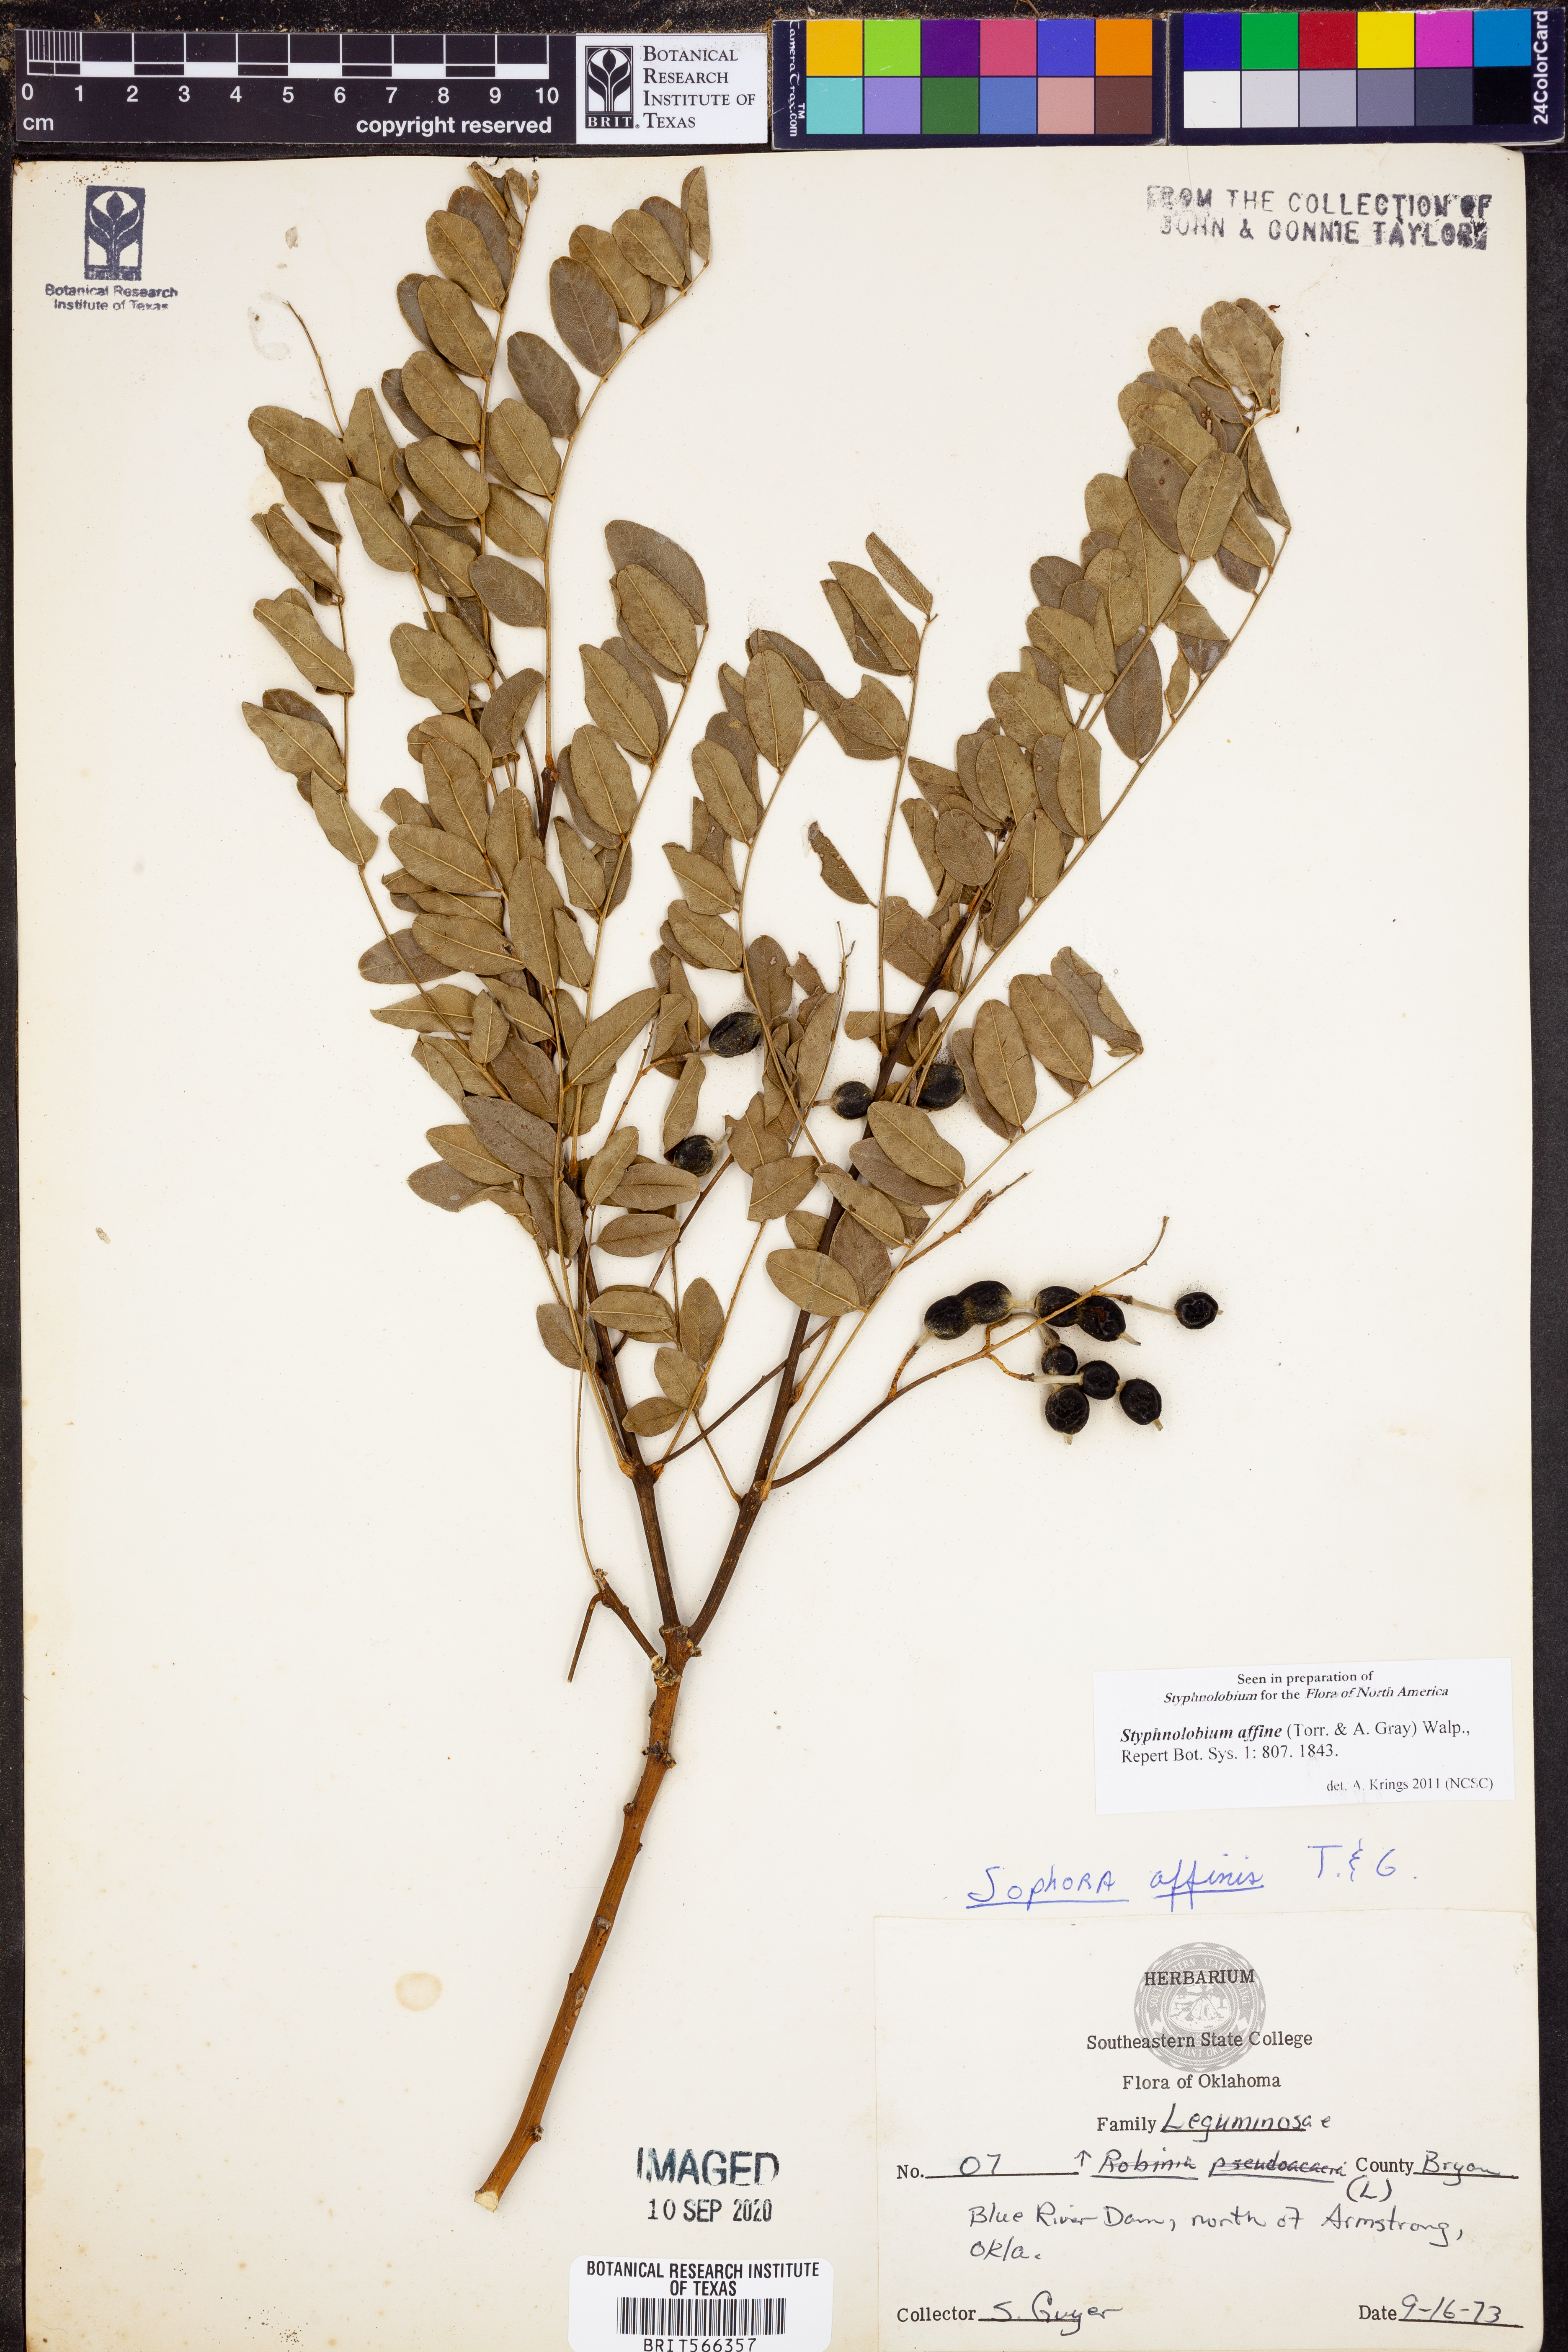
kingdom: Plantae
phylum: Tracheophyta
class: Magnoliopsida
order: Fabales
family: Fabaceae
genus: Styphnolobium
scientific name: Styphnolobium affine
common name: Texas sophora
